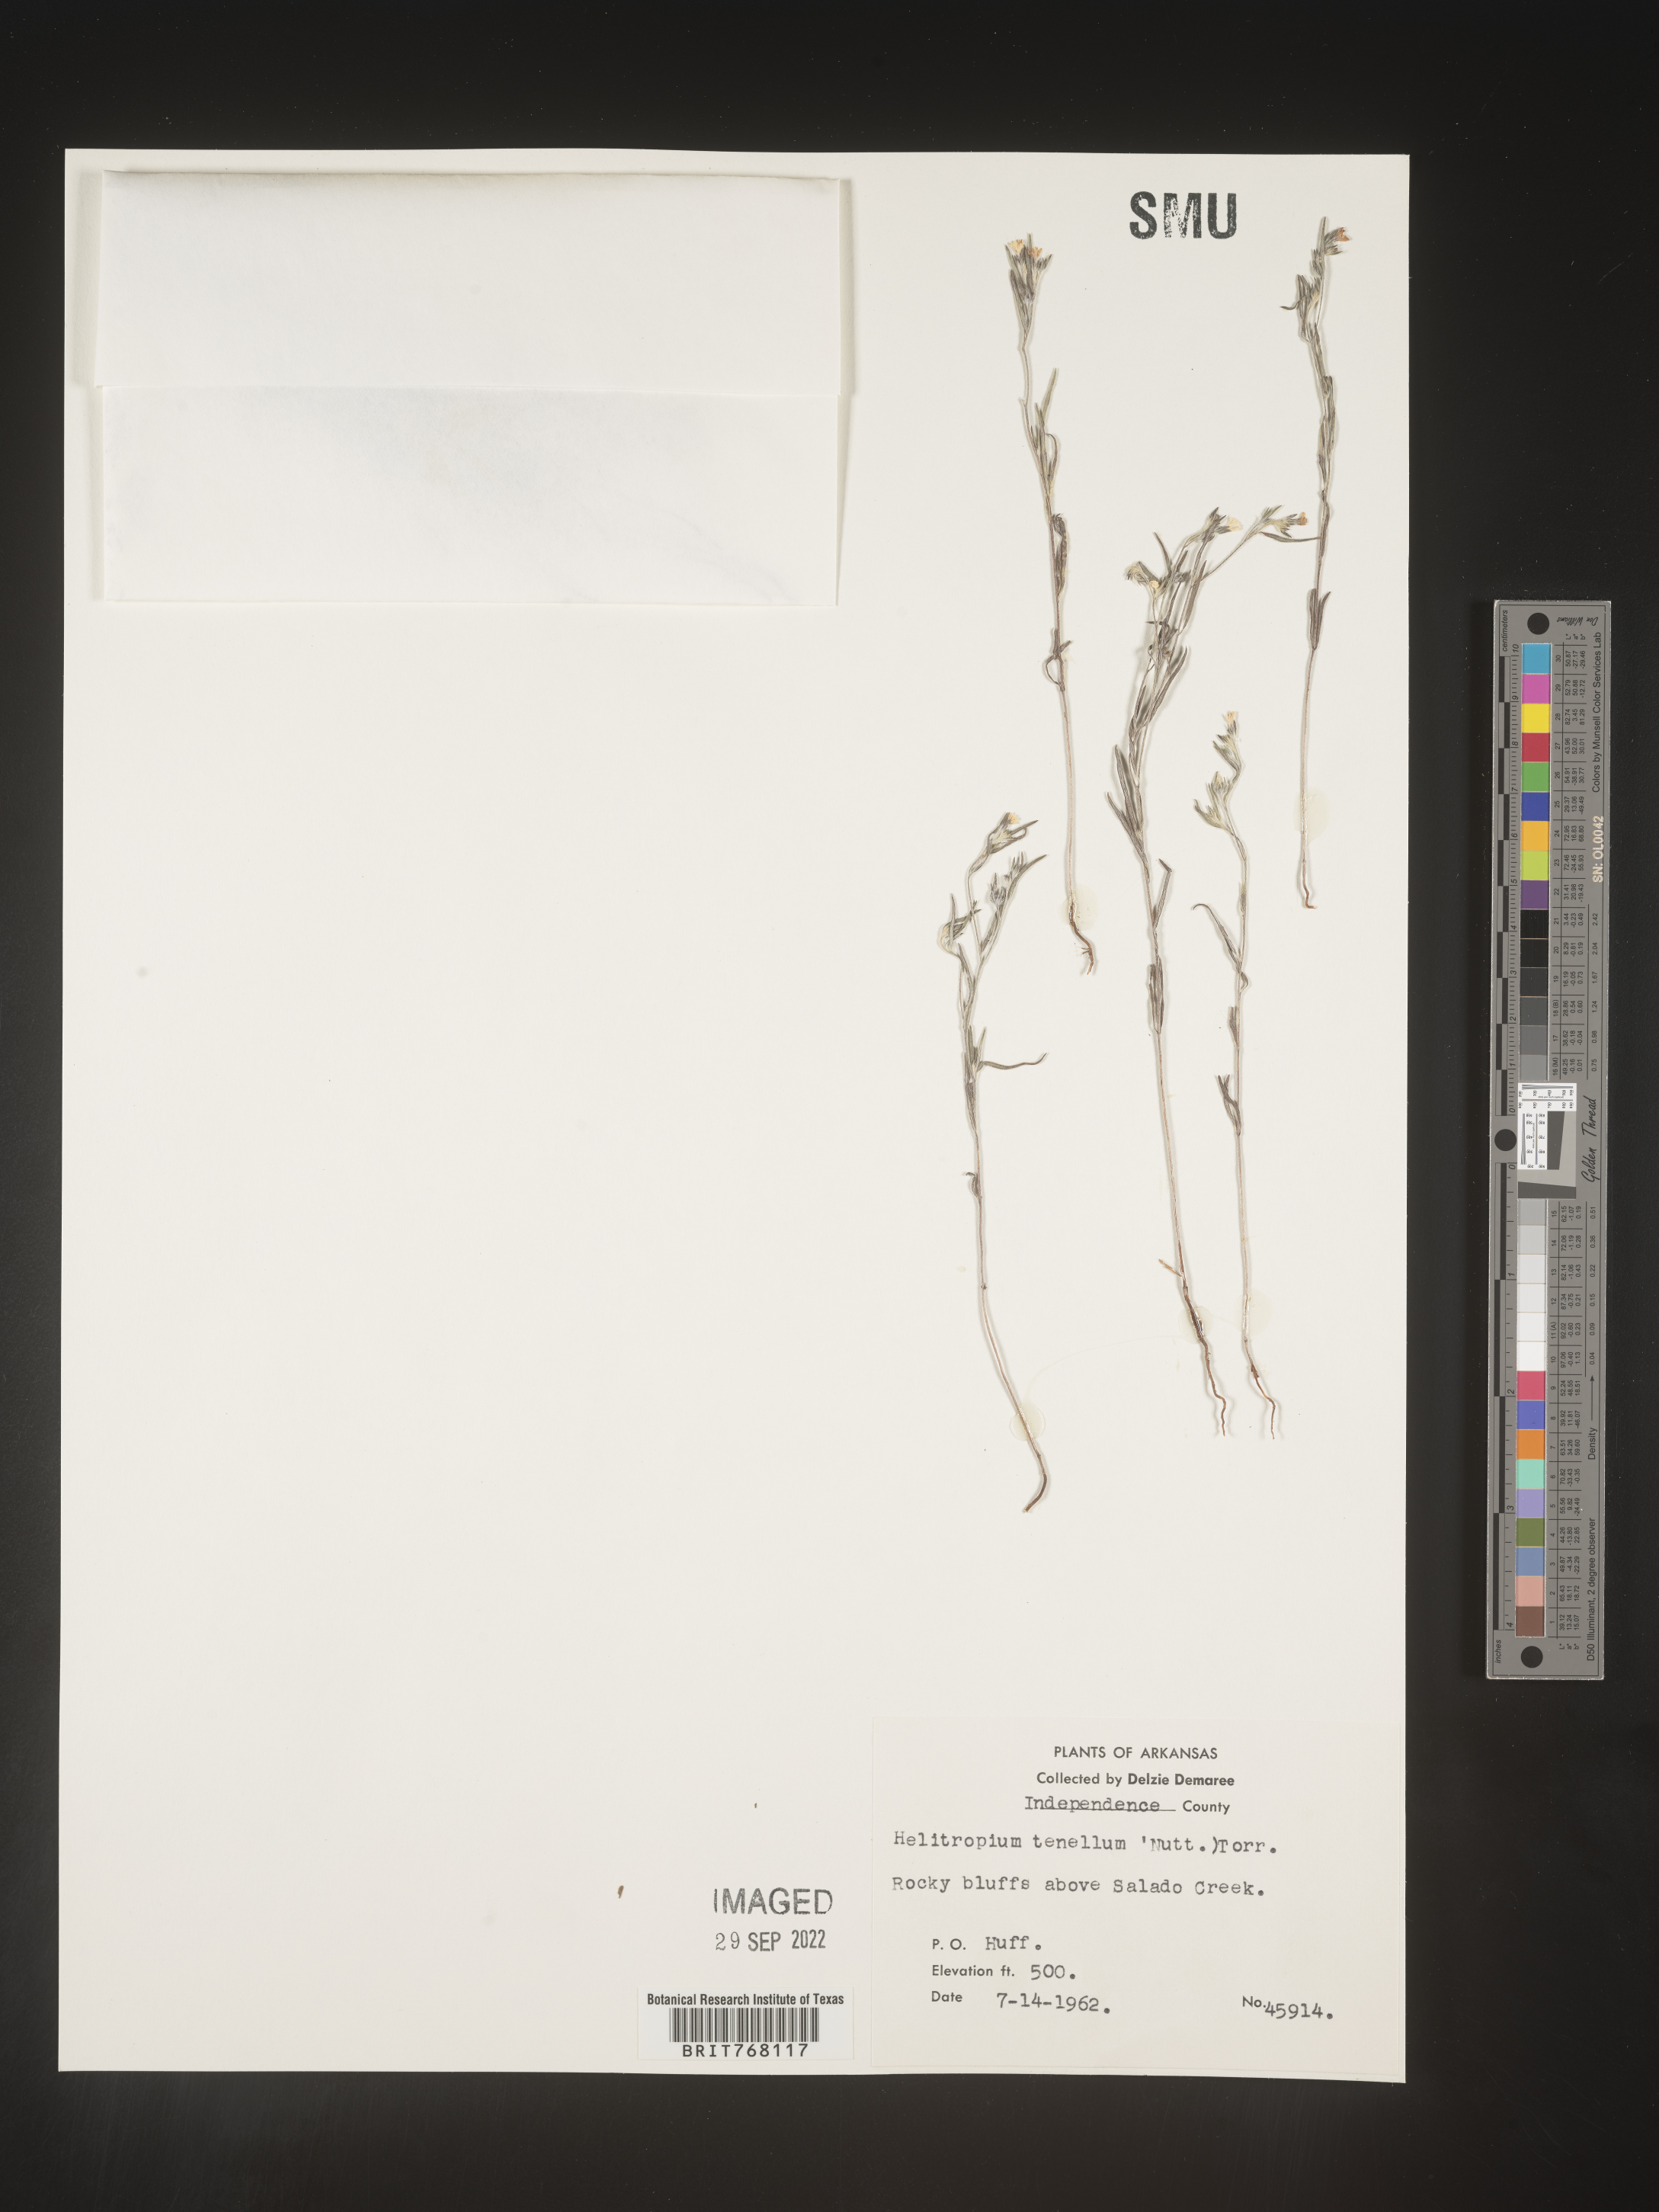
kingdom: Plantae
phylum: Tracheophyta
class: Magnoliopsida
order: Boraginales
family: Heliotropiaceae
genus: Euploca
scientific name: Euploca tenella
